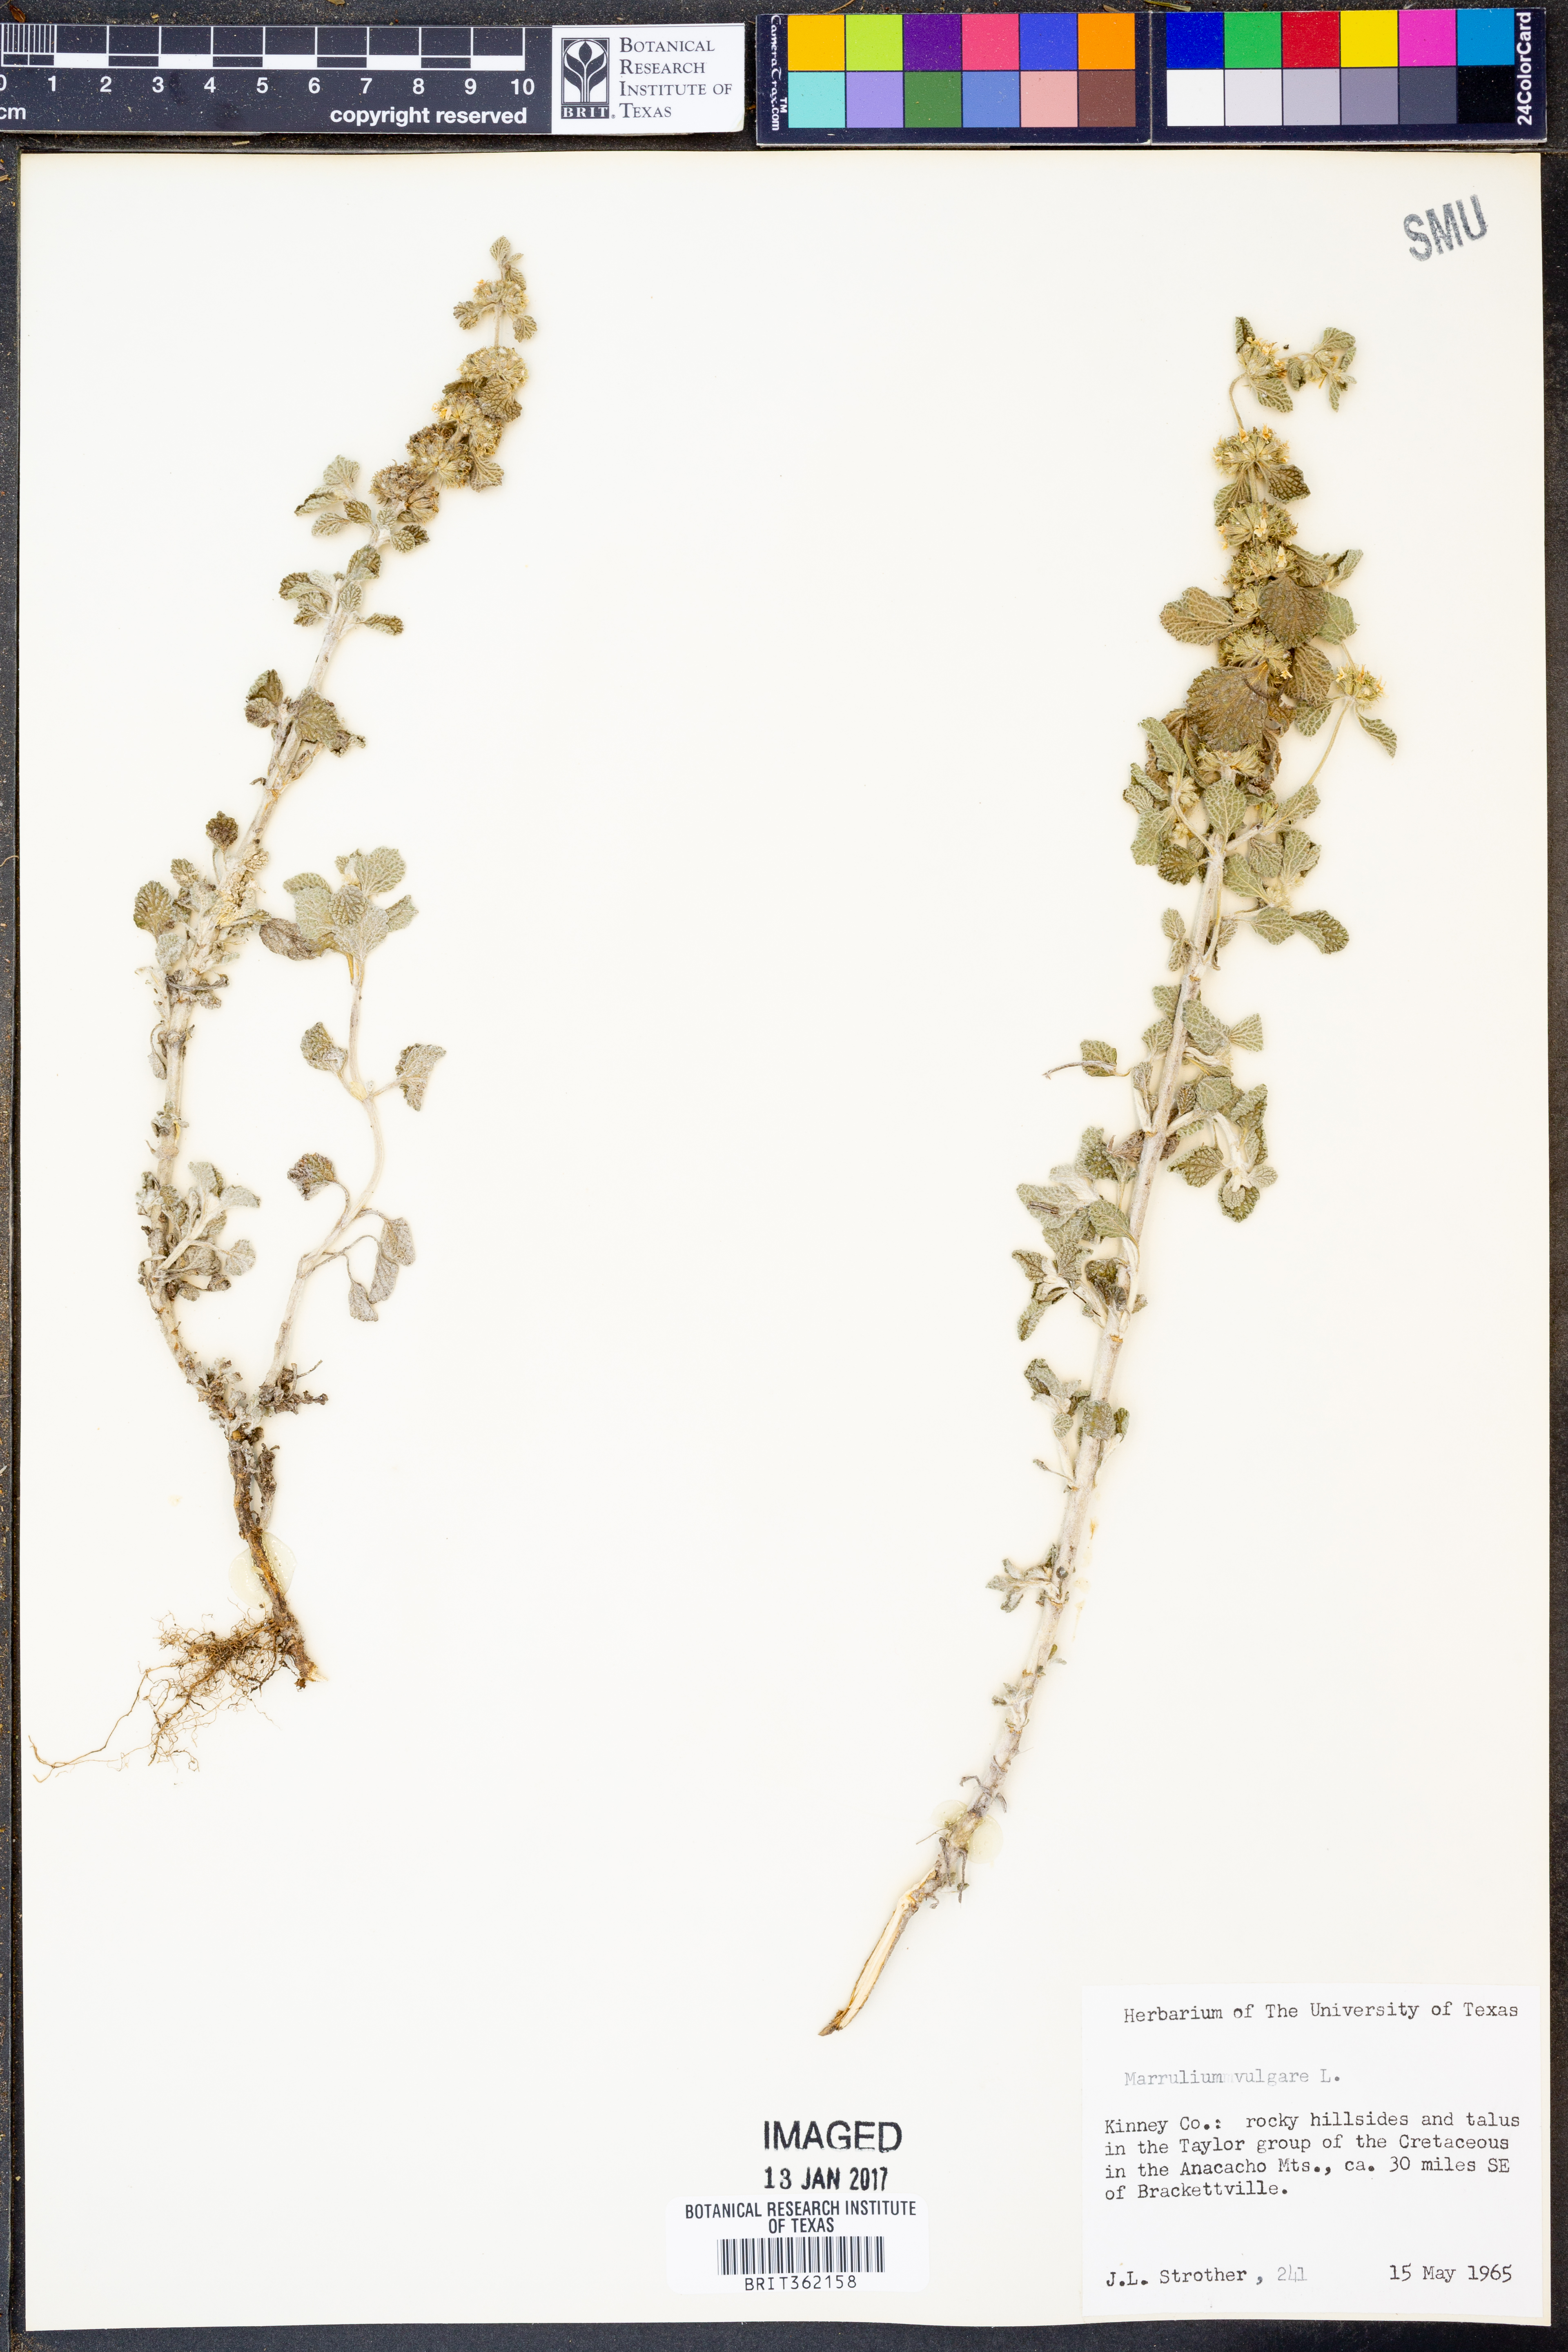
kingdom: Plantae
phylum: Tracheophyta
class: Magnoliopsida
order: Lamiales
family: Lamiaceae
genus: Marrubium
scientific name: Marrubium vulgare
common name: Horehound
